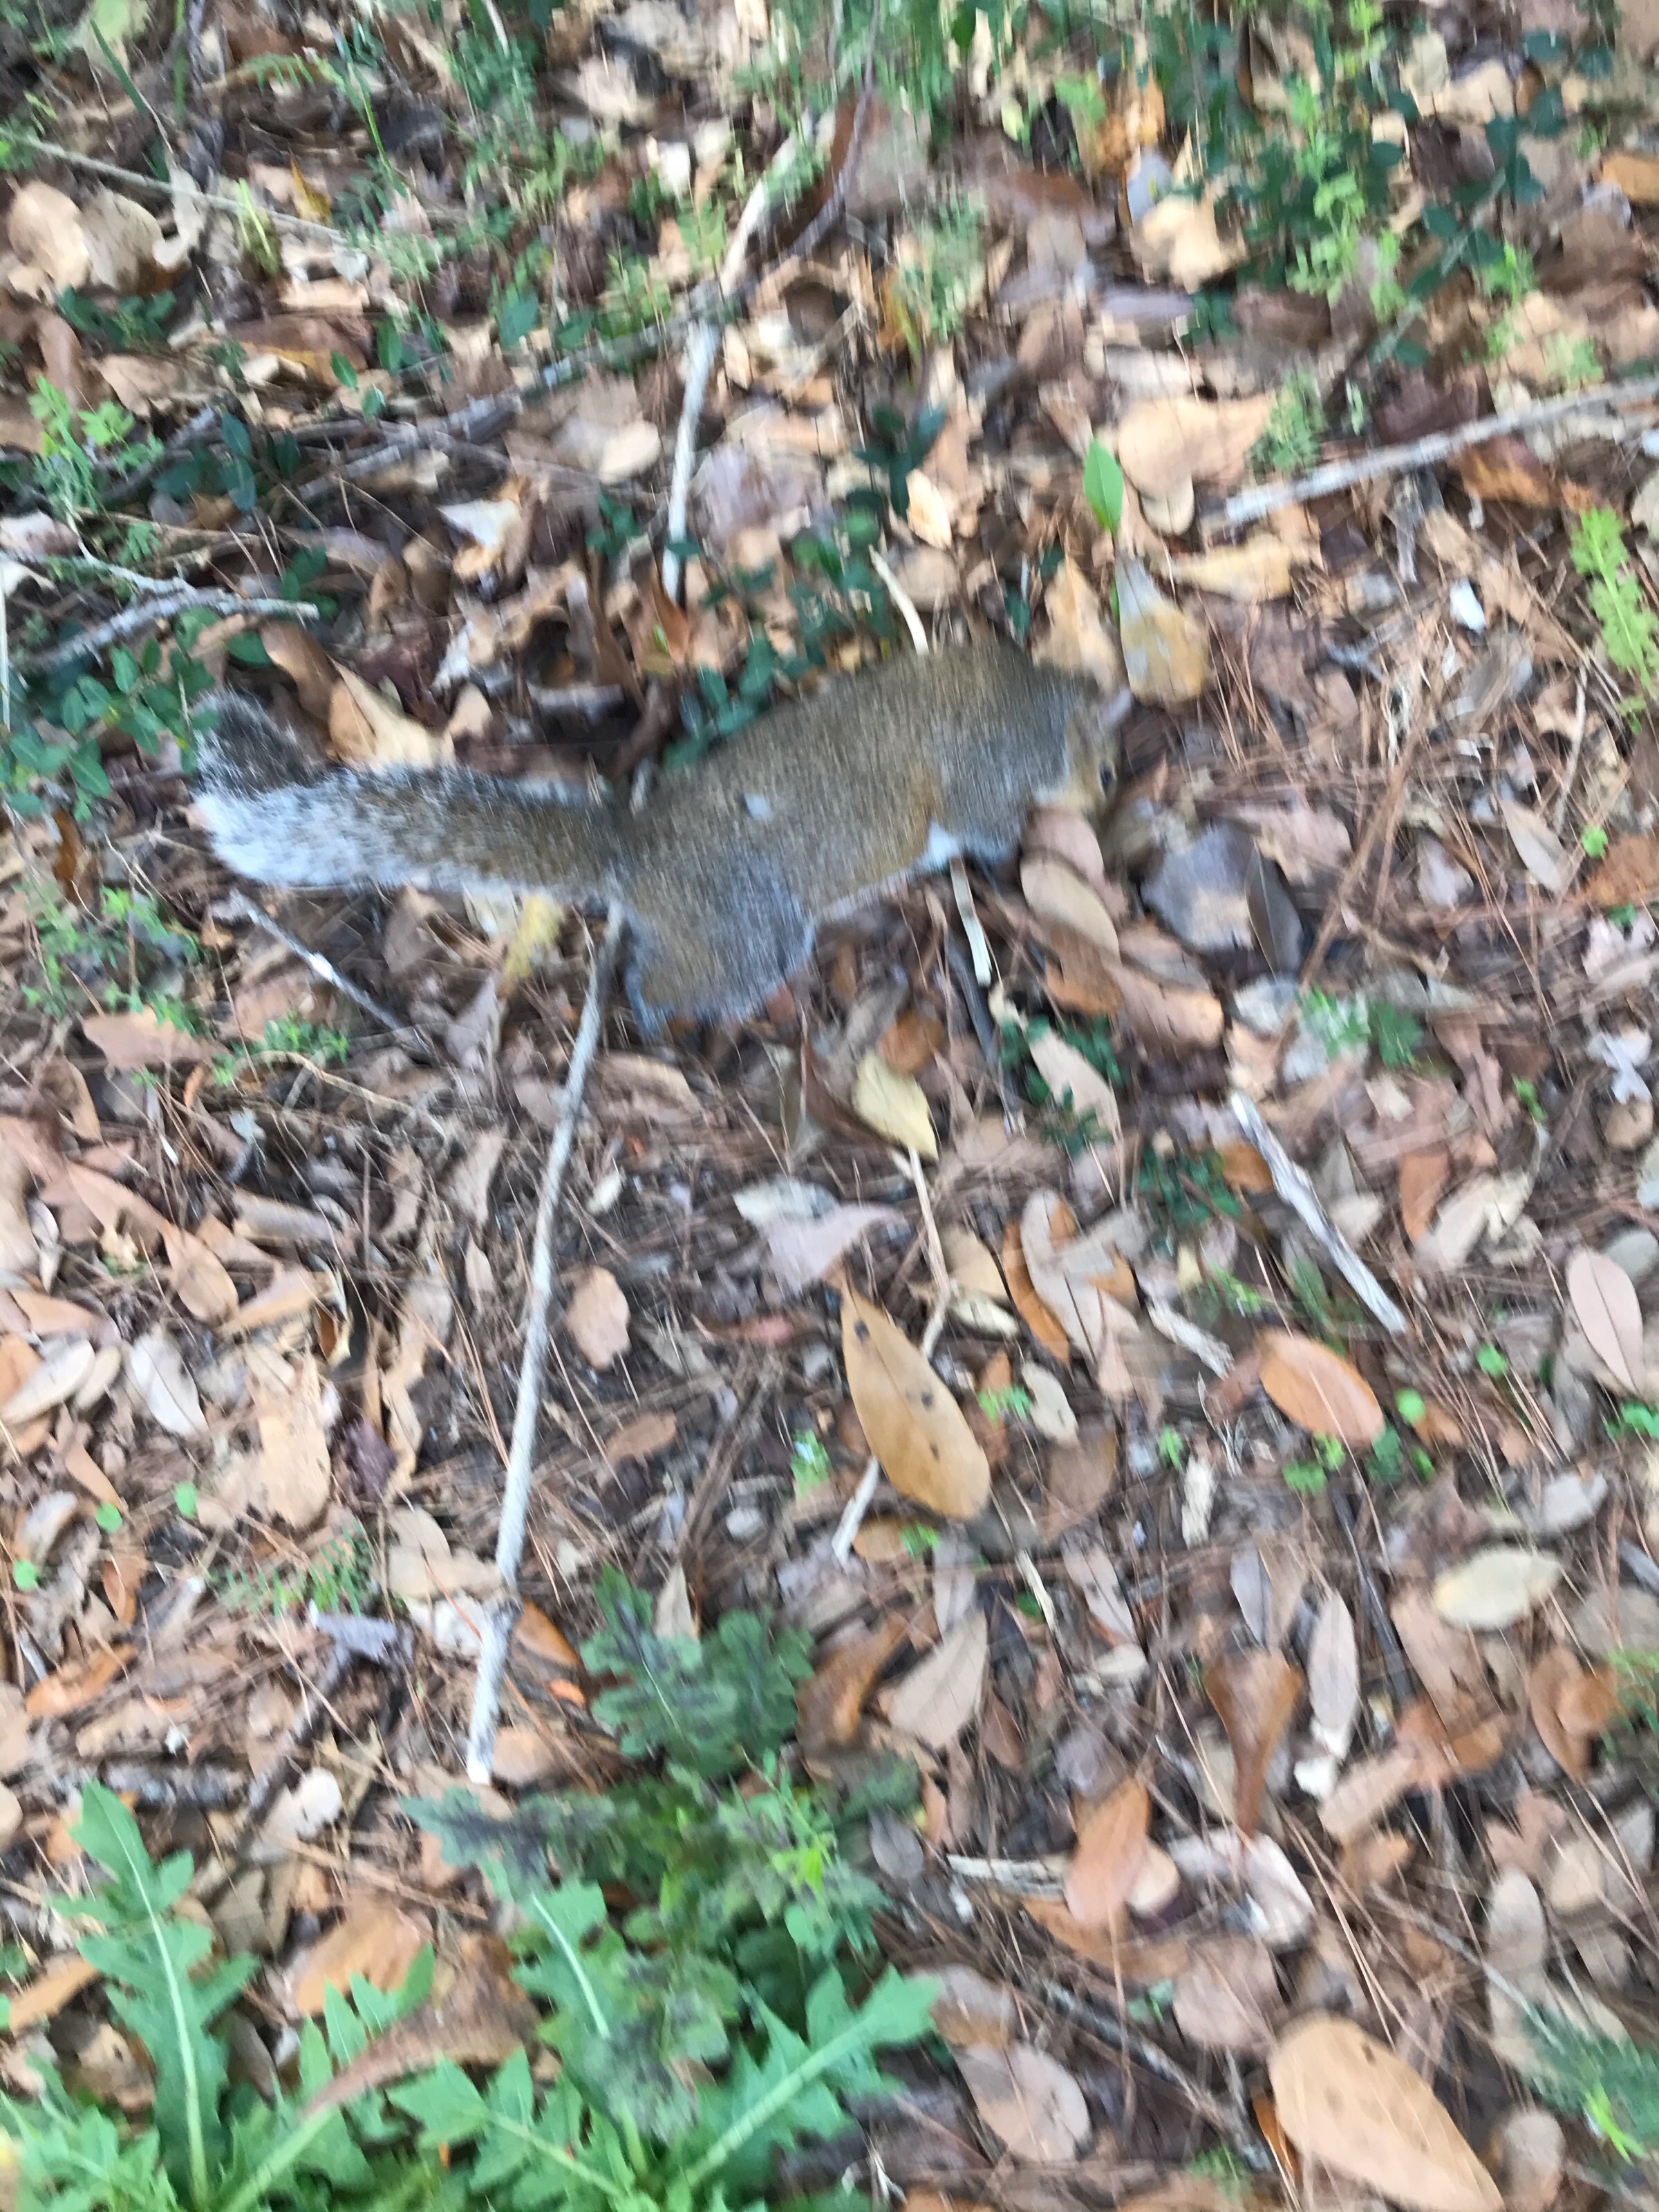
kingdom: Animalia
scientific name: Animalia
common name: NA
